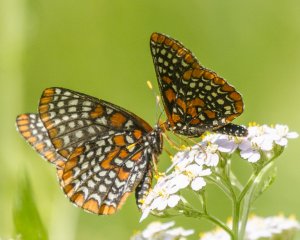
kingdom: Animalia
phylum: Arthropoda
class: Insecta
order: Lepidoptera
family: Nymphalidae
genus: Euphydryas
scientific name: Euphydryas phaeton
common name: Baltimore Checkerspot
